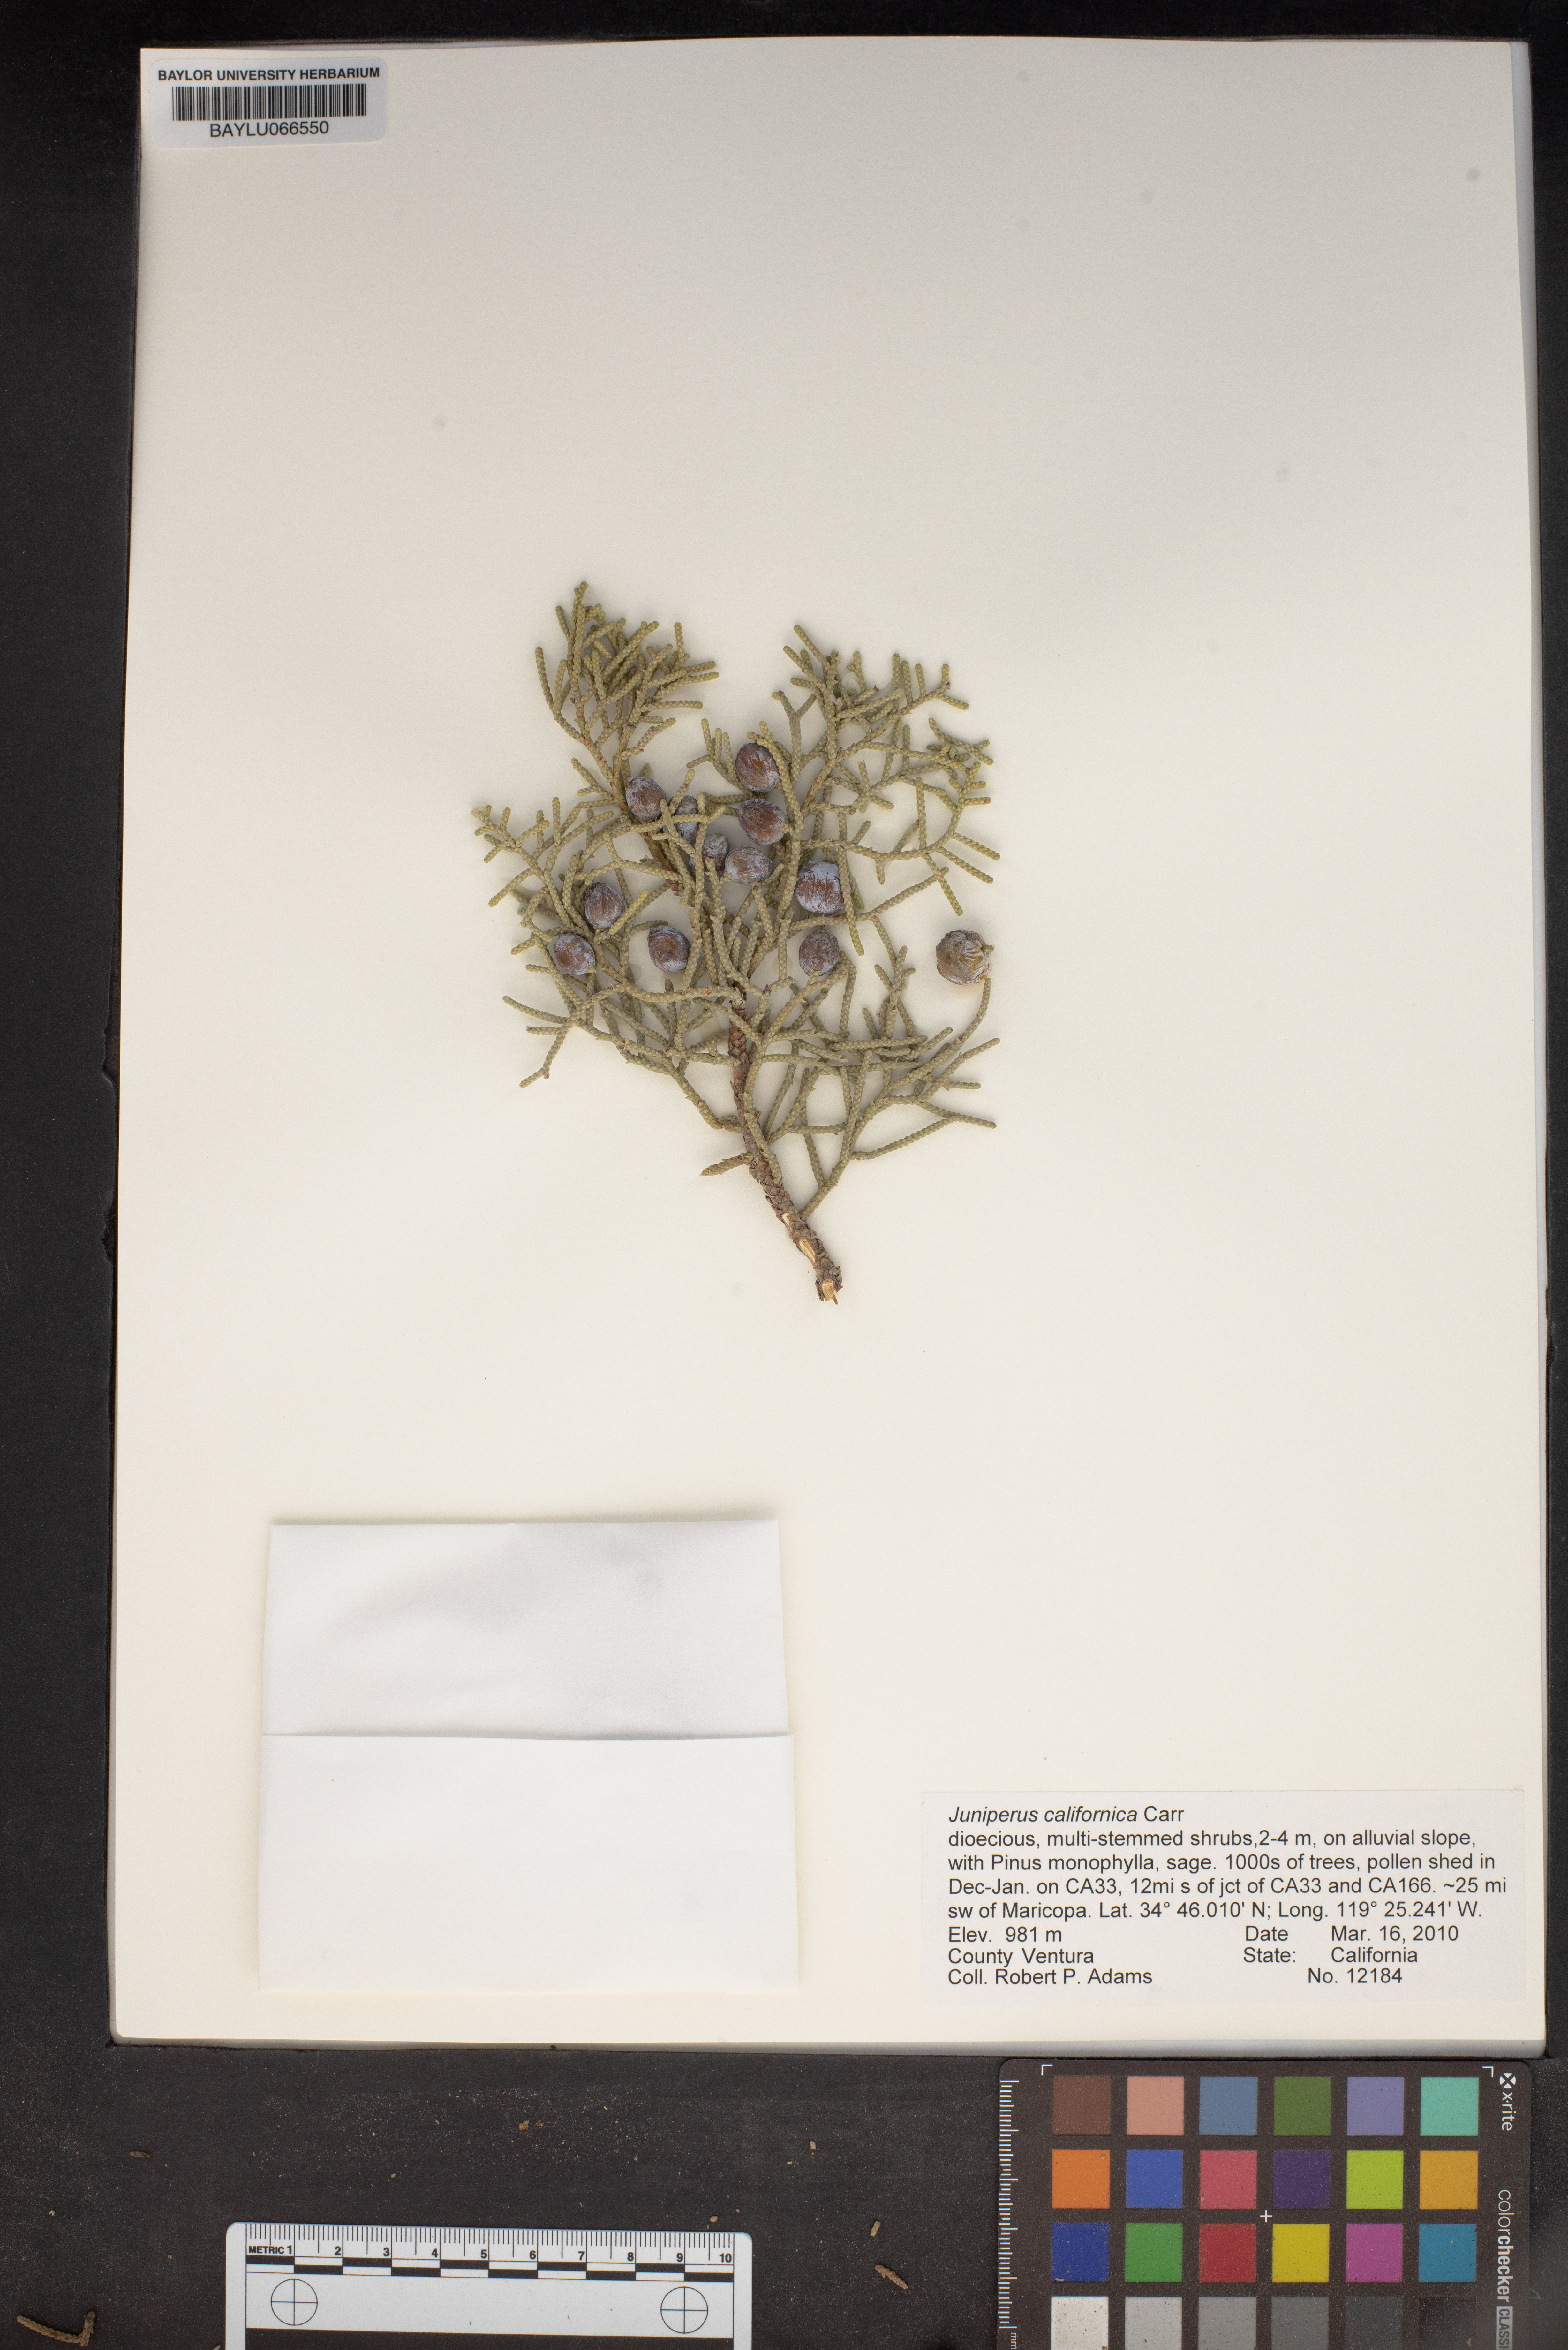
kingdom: Plantae
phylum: Tracheophyta
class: Pinopsida
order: Pinales
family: Cupressaceae
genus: Juniperus
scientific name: Juniperus californica
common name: California juniper
